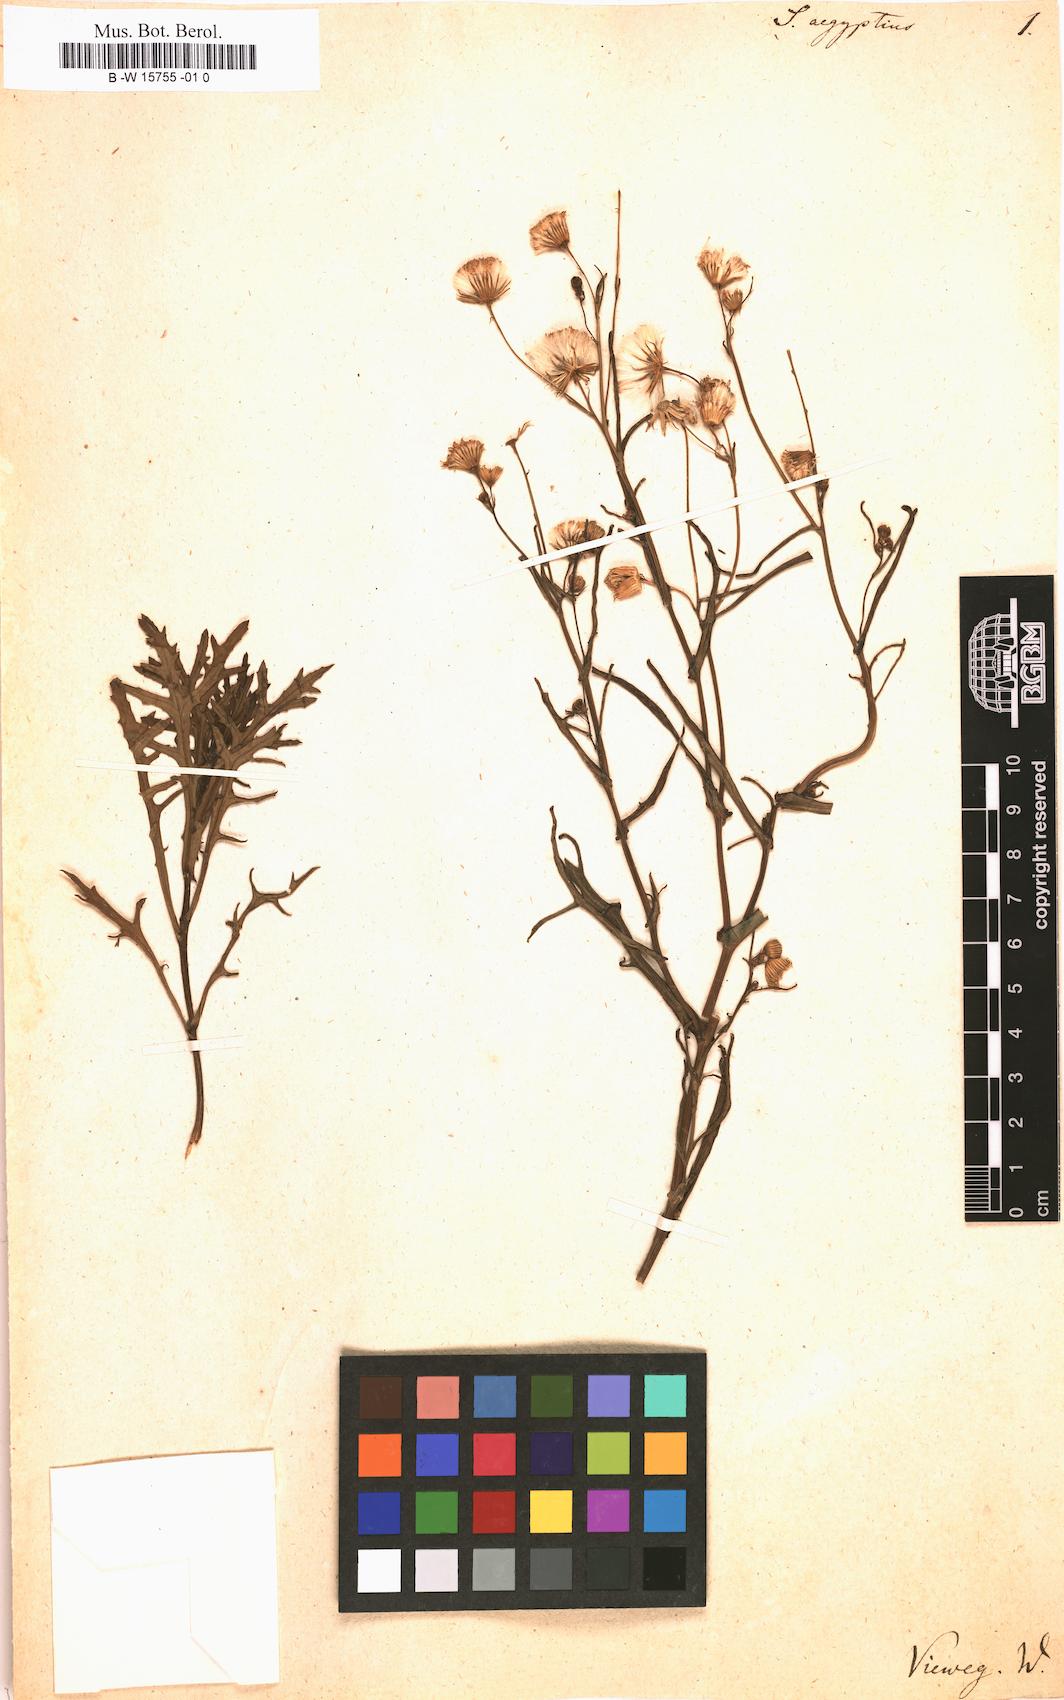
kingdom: Plantae
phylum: Tracheophyta
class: Magnoliopsida
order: Asterales
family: Asteraceae
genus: Senecio
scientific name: Senecio aegyptius
